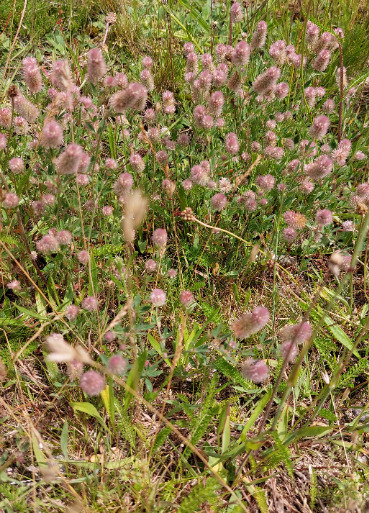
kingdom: Plantae
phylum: Tracheophyta
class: Magnoliopsida
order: Fabales
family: Fabaceae
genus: Trifolium
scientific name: Trifolium arvense
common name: Hare-kløver
